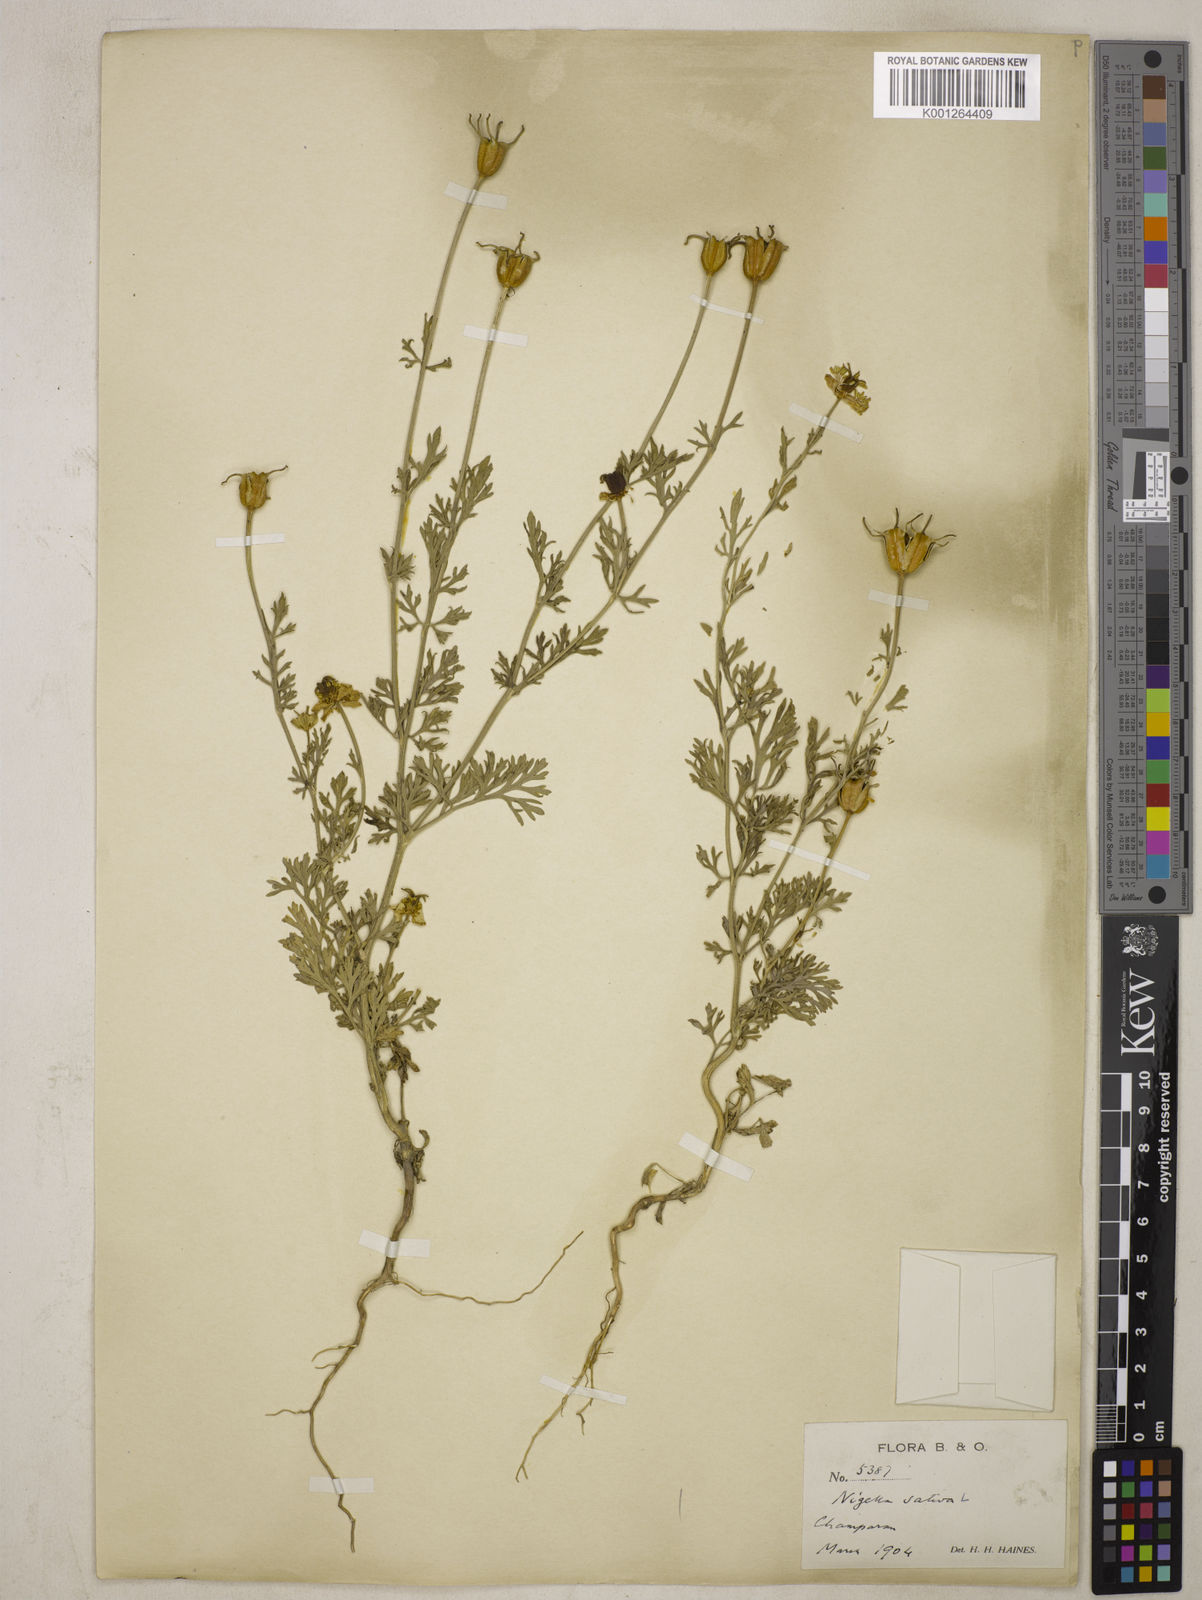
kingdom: Plantae
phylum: Tracheophyta
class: Magnoliopsida
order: Ranunculales
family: Ranunculaceae
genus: Nigella
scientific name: Nigella sativa
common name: Black-cumin
